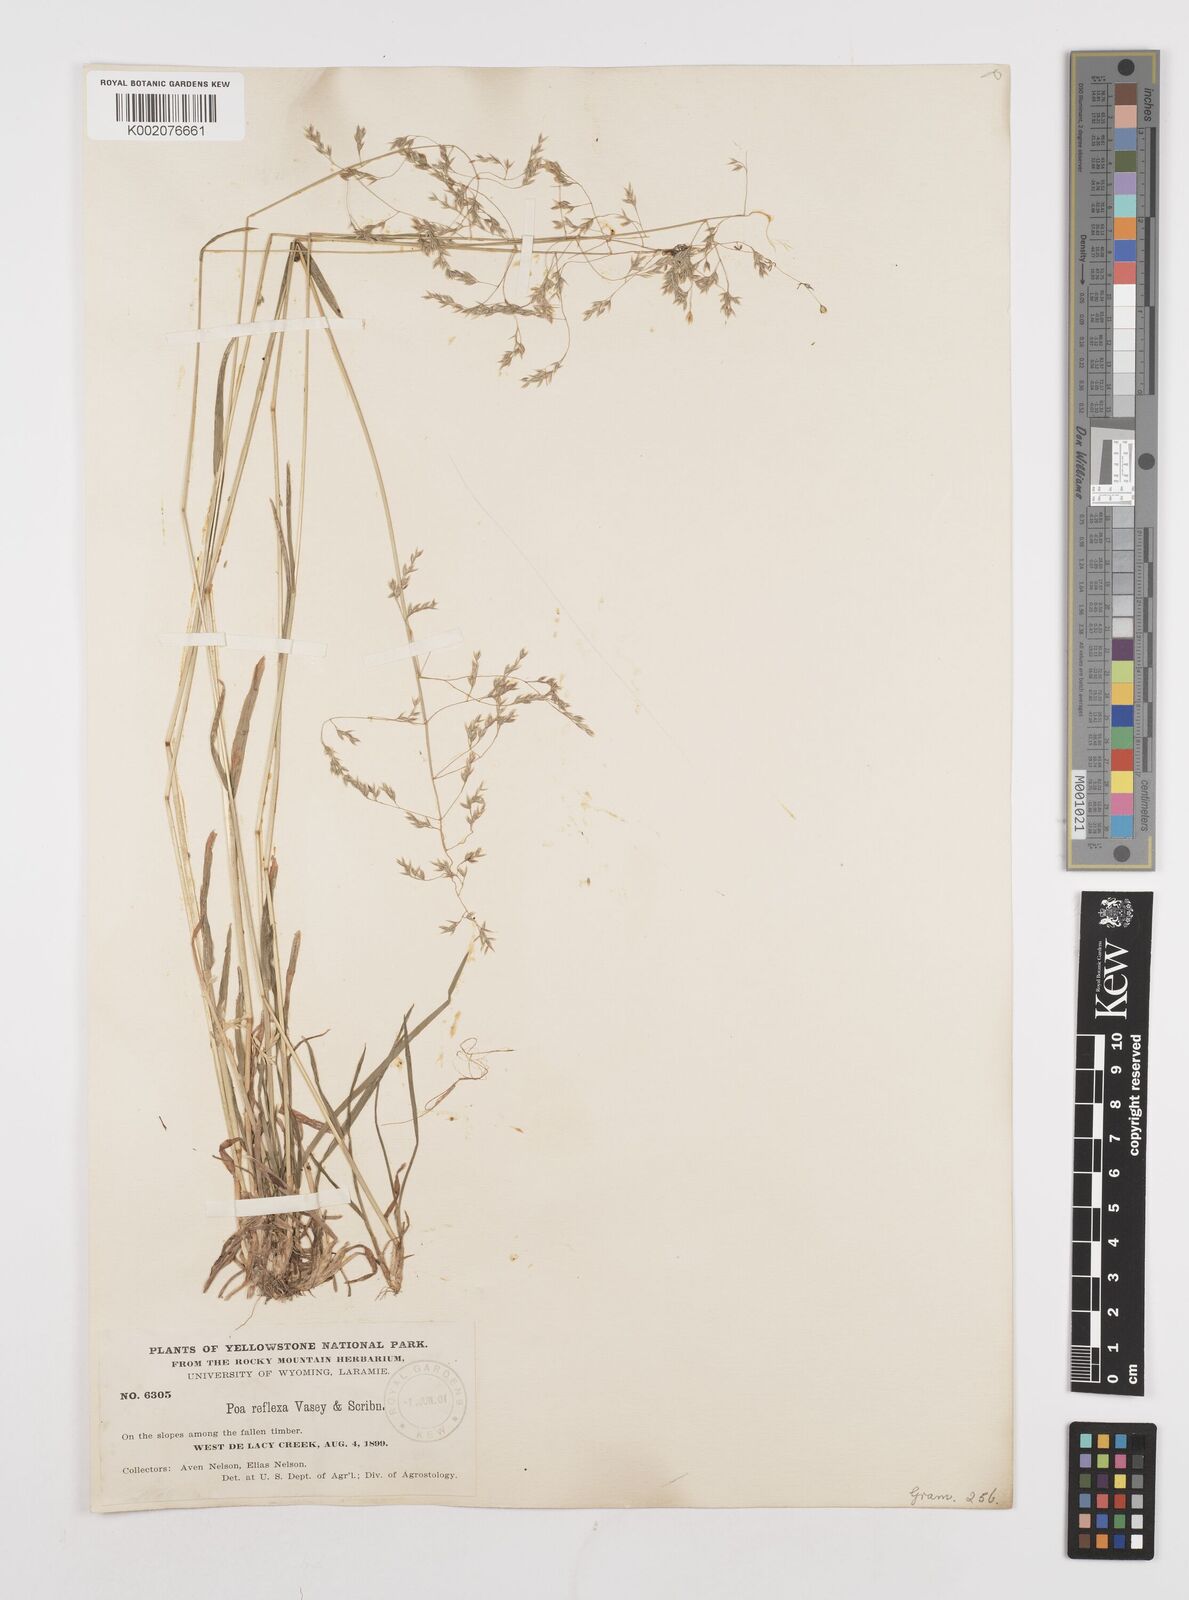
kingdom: Plantae
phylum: Tracheophyta
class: Liliopsida
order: Poales
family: Poaceae
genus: Poa
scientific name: Poa reflexa
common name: Nodding bluegrass
